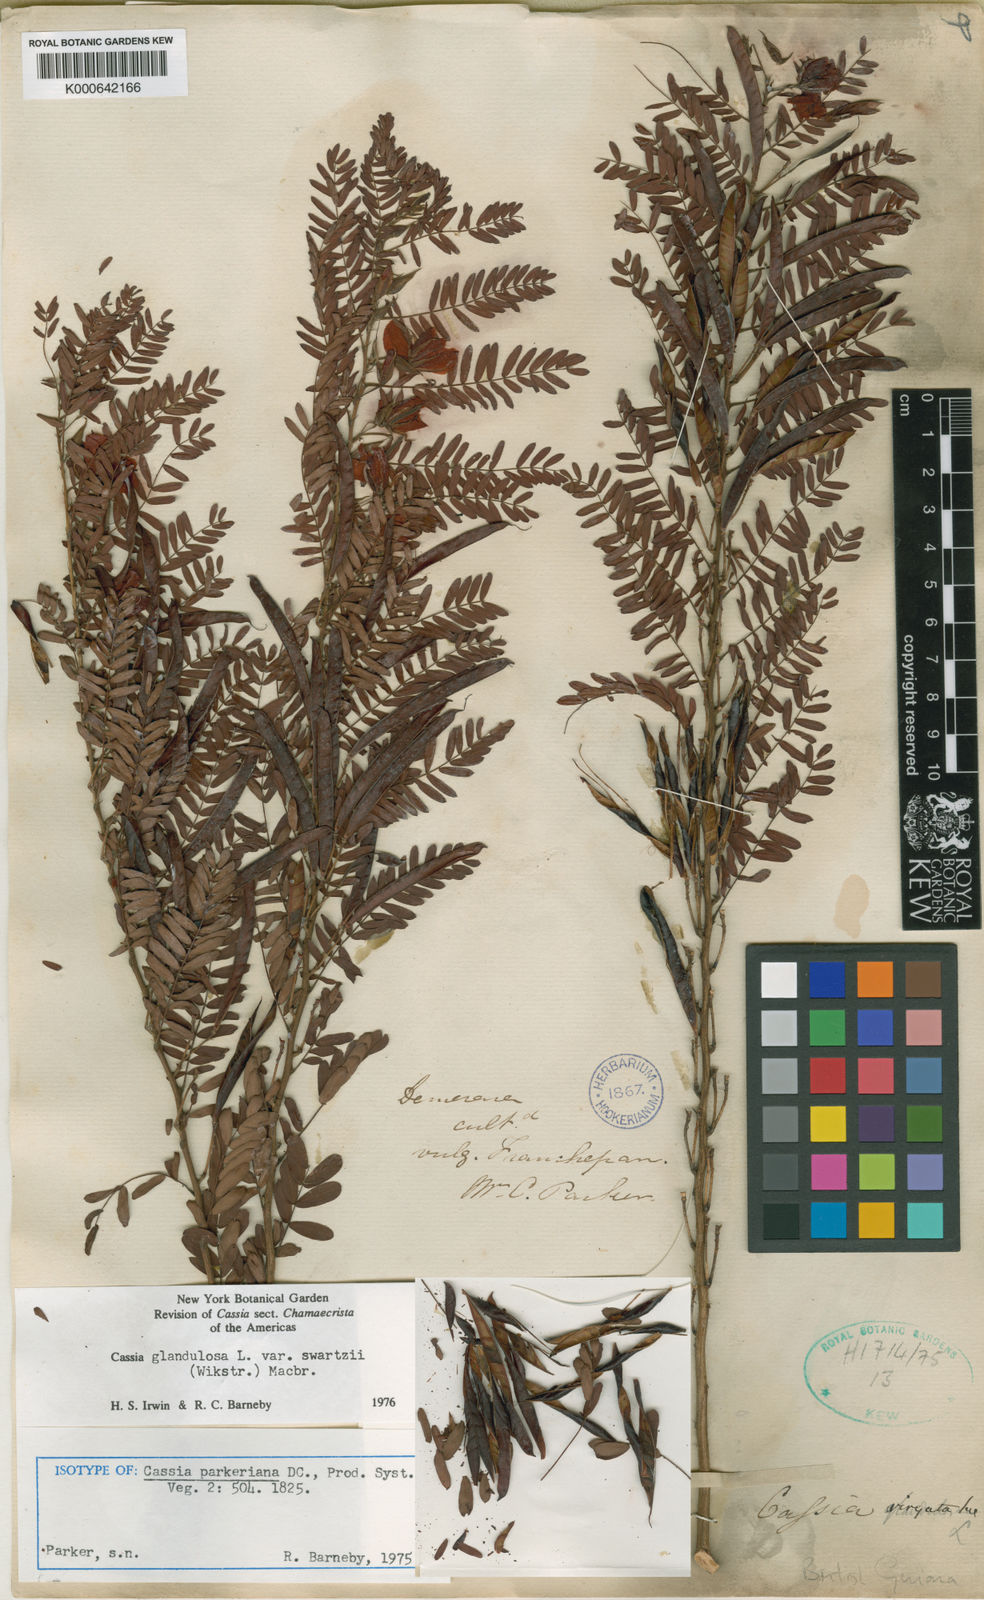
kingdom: Plantae
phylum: Tracheophyta
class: Magnoliopsida
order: Fabales
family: Fabaceae
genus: Chamaecrista
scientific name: Chamaecrista glandulosa
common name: Wild peas
